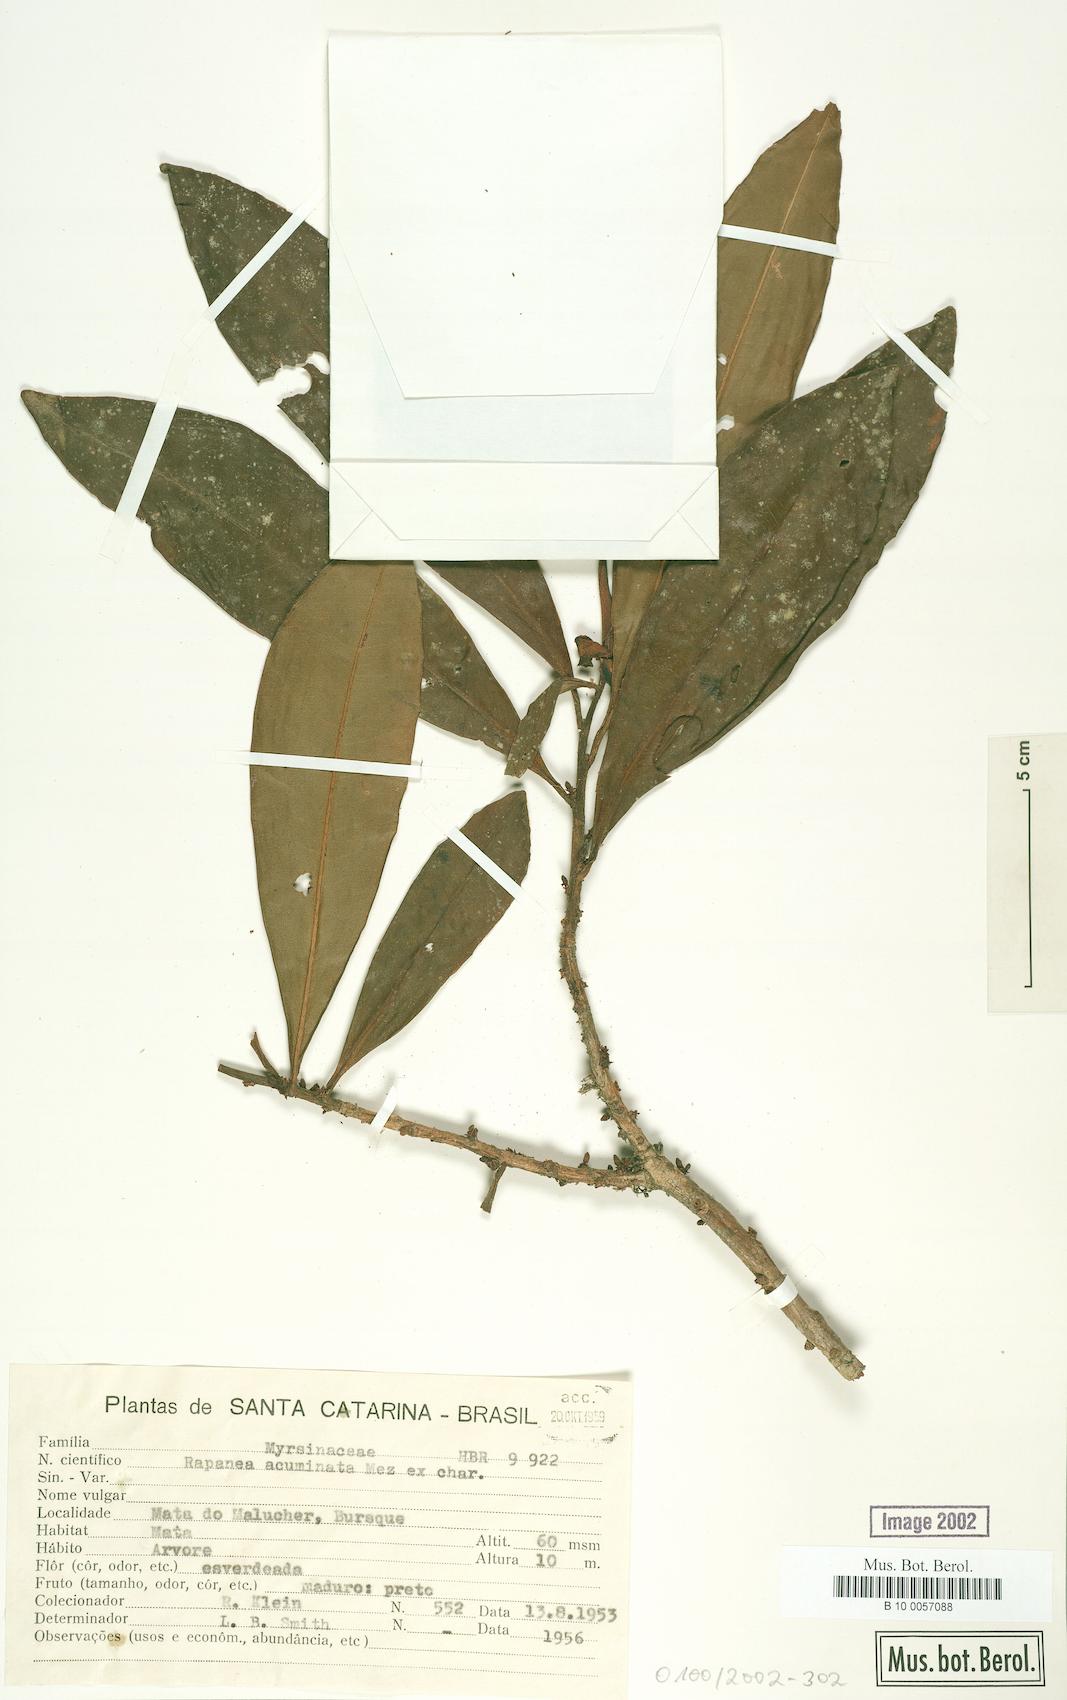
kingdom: Plantae
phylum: Tracheophyta
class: Magnoliopsida
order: Ericales
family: Primulaceae
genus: Myrsine
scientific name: Myrsine umbellata
